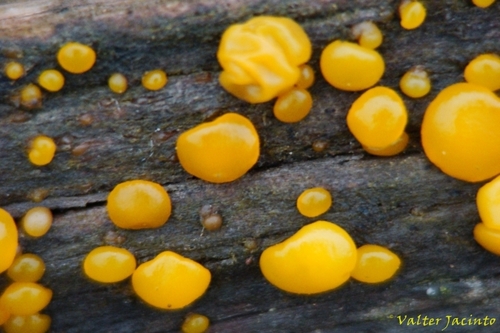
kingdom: Fungi
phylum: Basidiomycota
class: Dacrymycetes
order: Dacrymycetales
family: Dacrymycetaceae
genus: Dacrymyces
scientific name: Dacrymyces stillatus
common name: Common jelly spot
